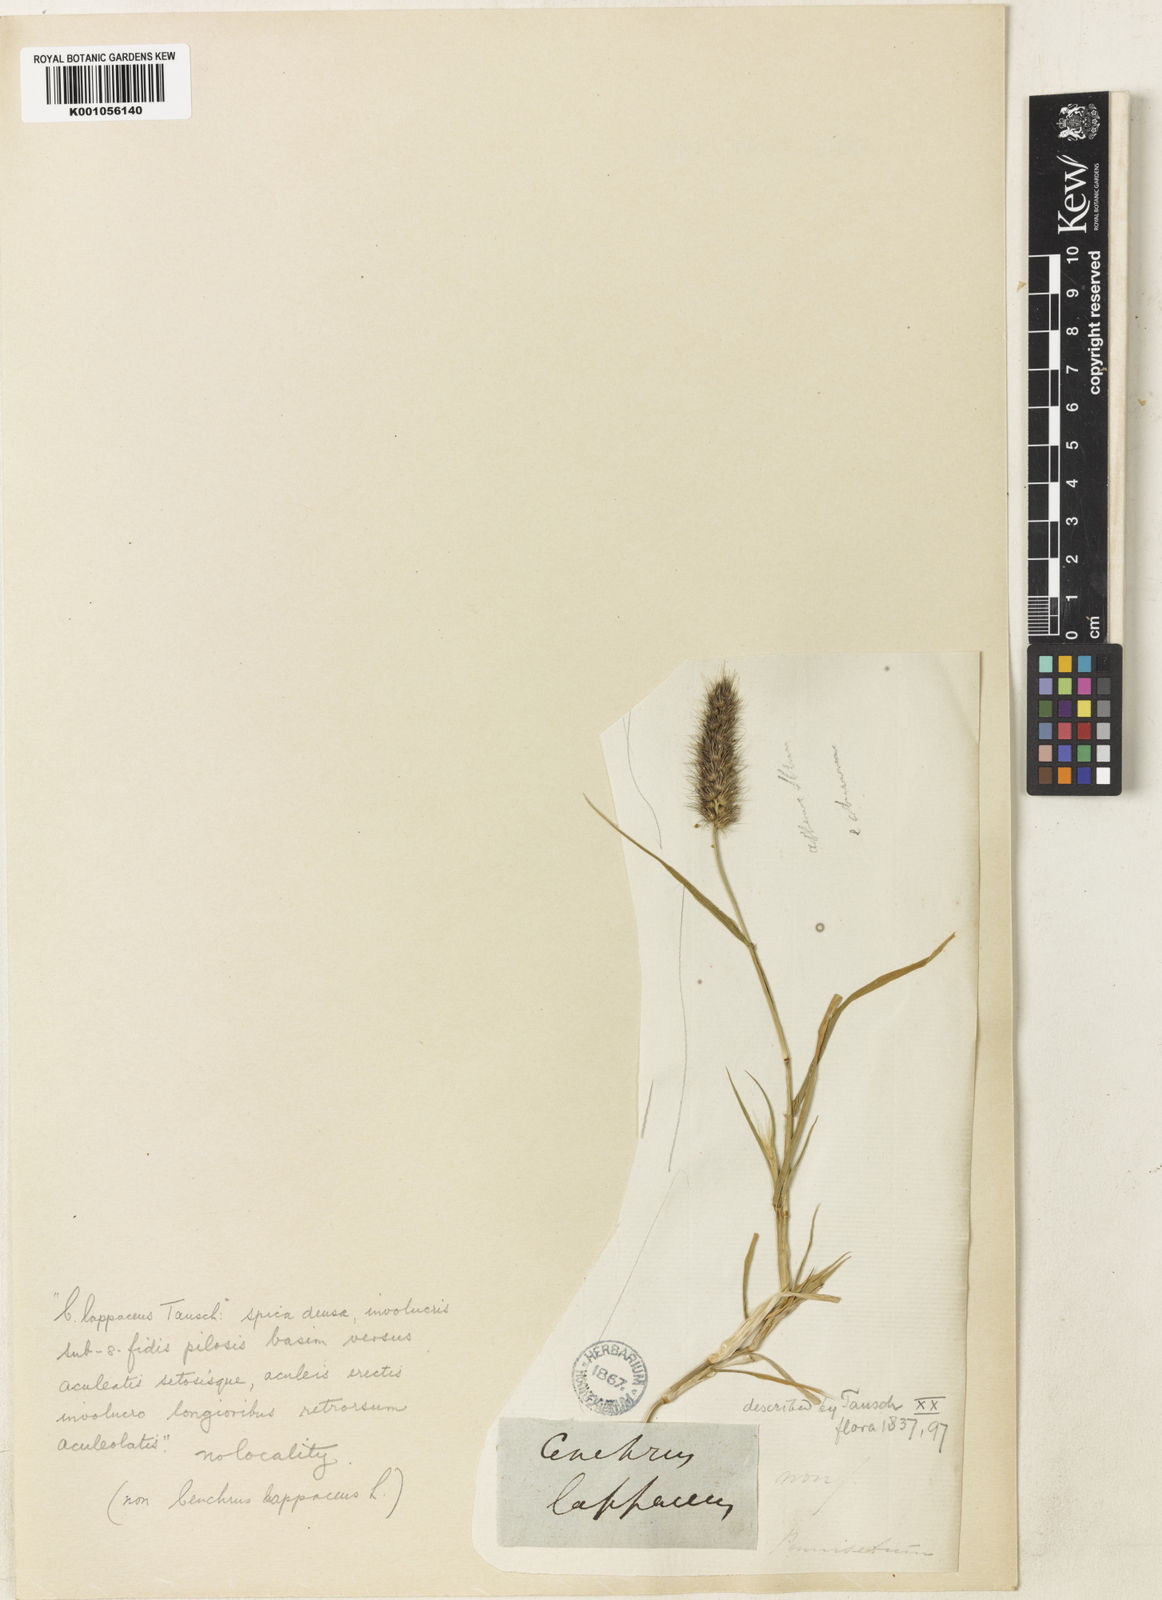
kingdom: Plantae
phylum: Tracheophyta
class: Liliopsida
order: Poales
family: Poaceae
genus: Cenchrus
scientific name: Cenchrus pennisetiformis
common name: Cloncurry
